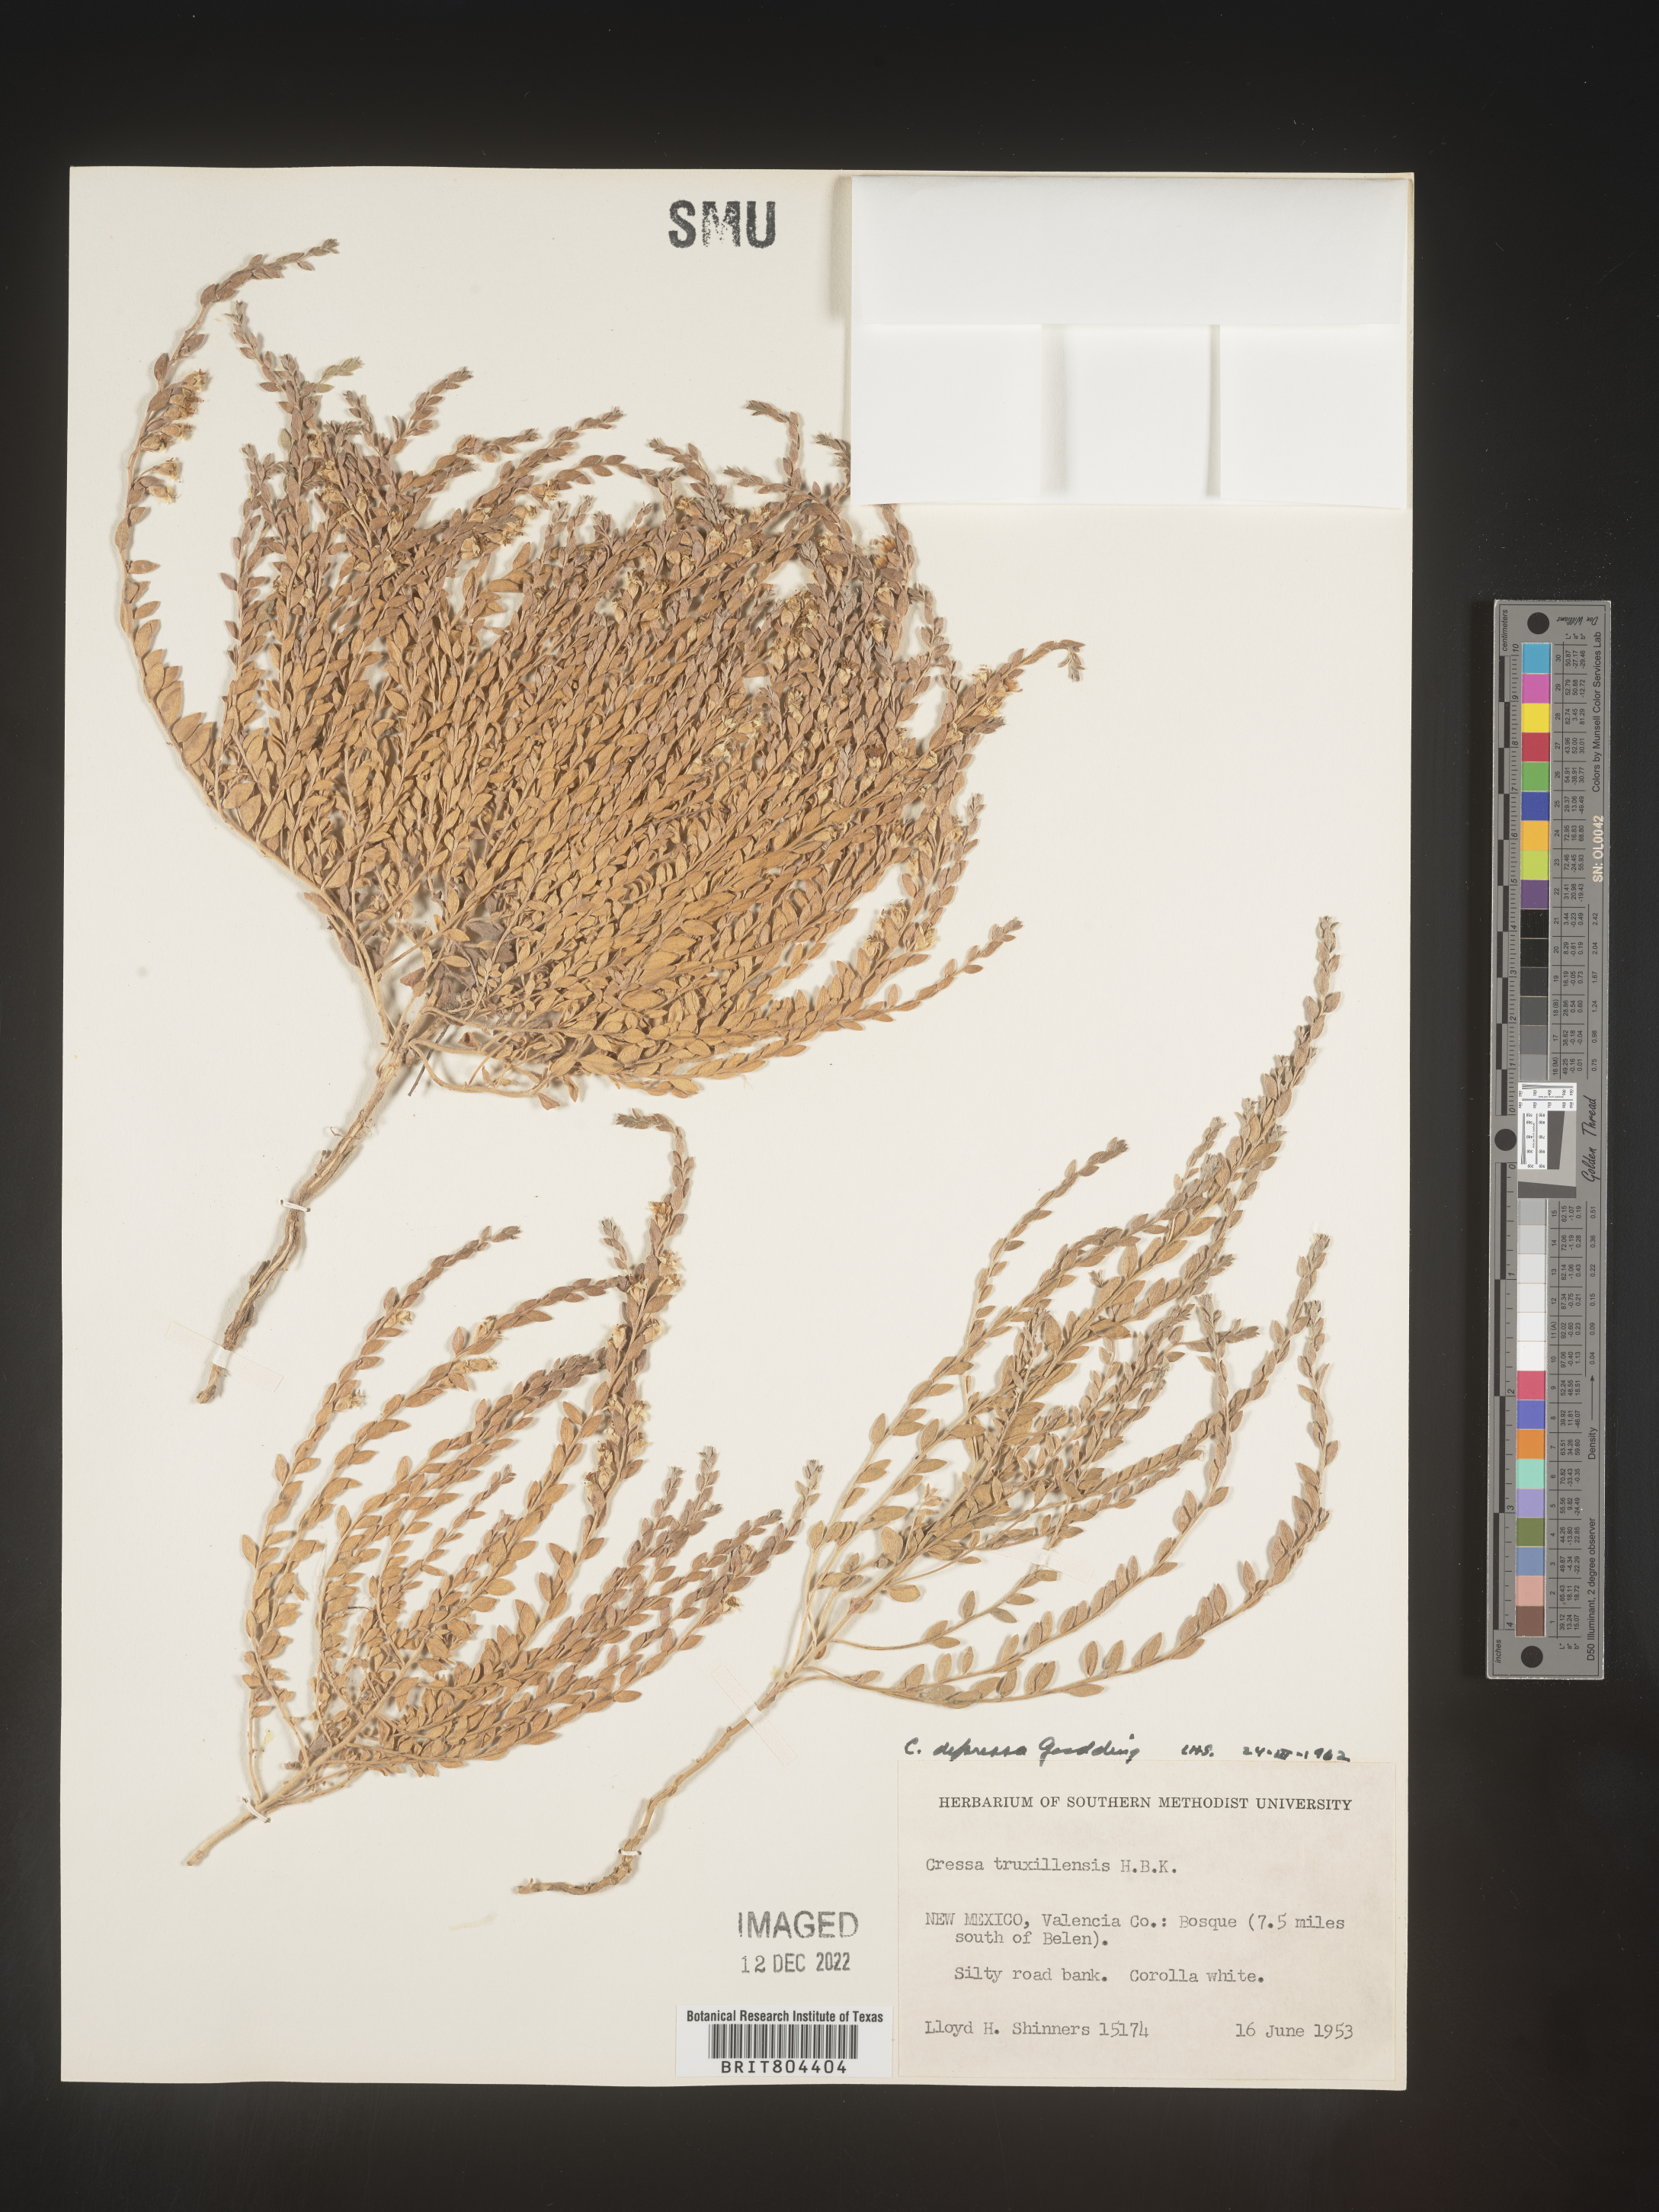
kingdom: Plantae
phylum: Tracheophyta
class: Magnoliopsida
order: Solanales
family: Convolvulaceae
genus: Cressa
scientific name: Cressa
